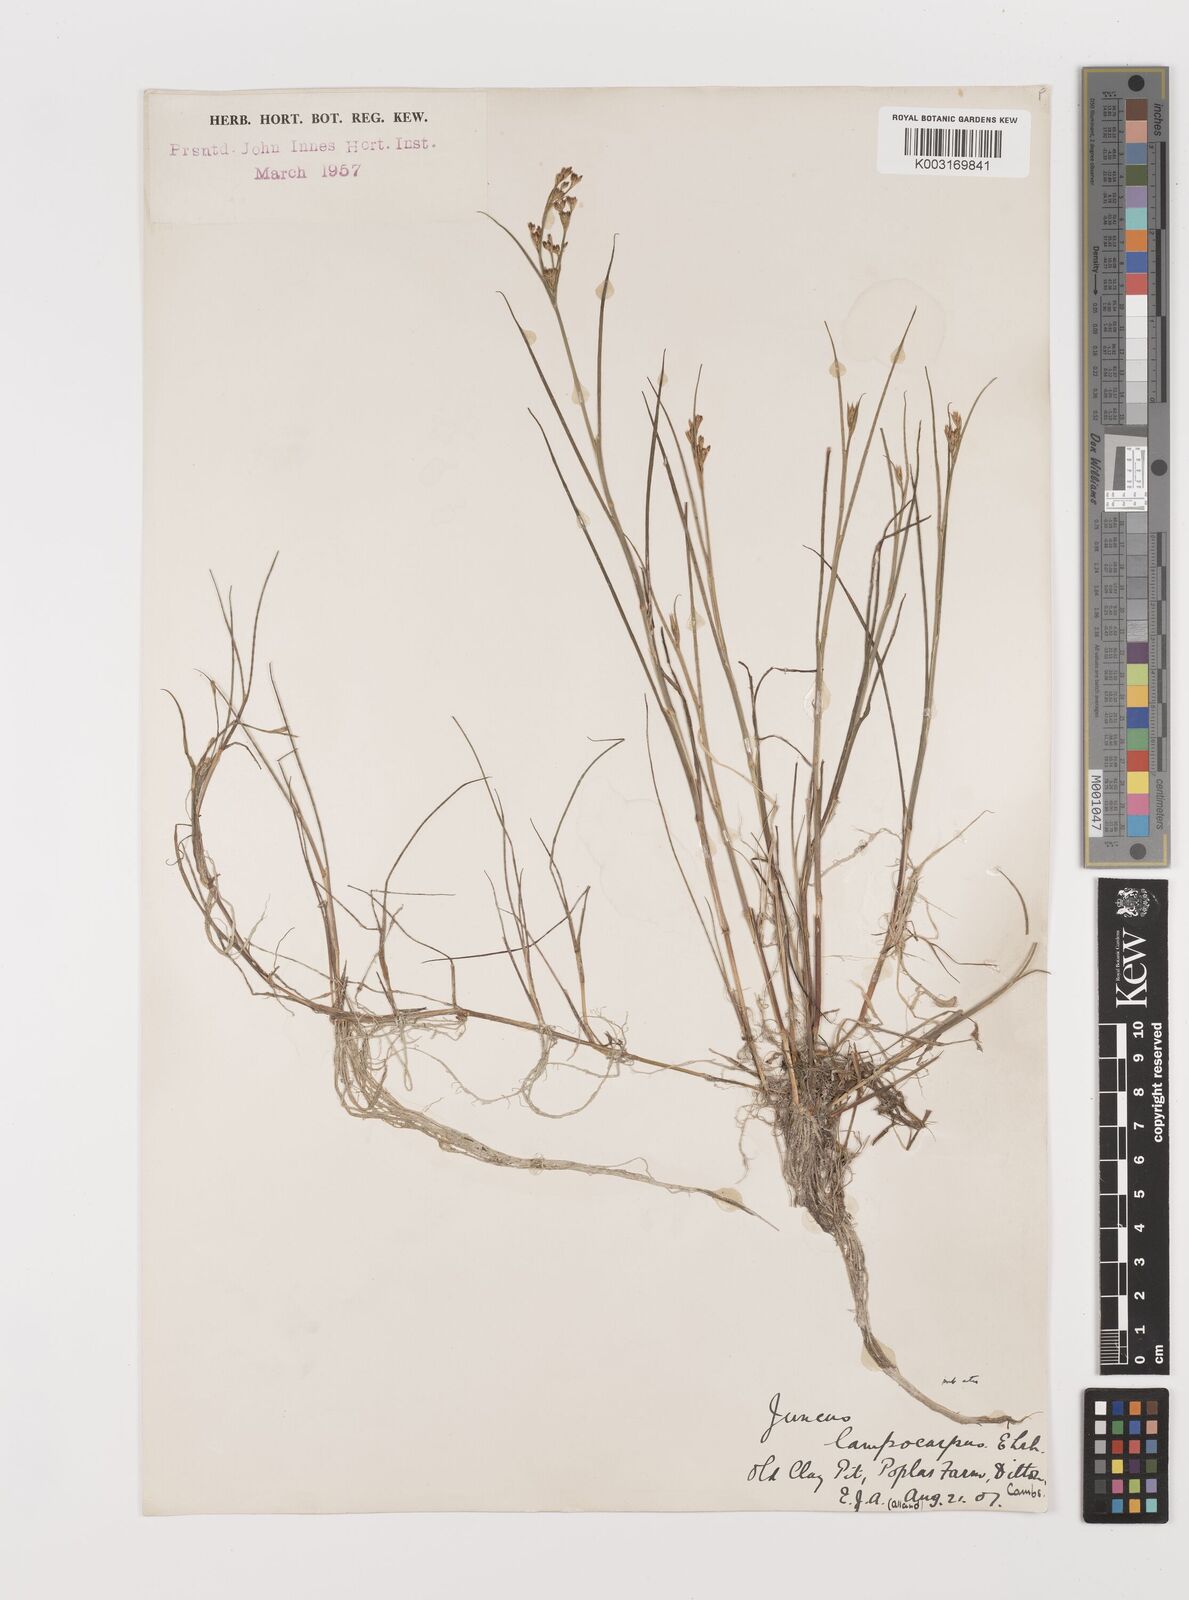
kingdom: Plantae
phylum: Tracheophyta
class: Liliopsida
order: Poales
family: Juncaceae
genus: Juncus
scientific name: Juncus articulatus
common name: Jointed rush
